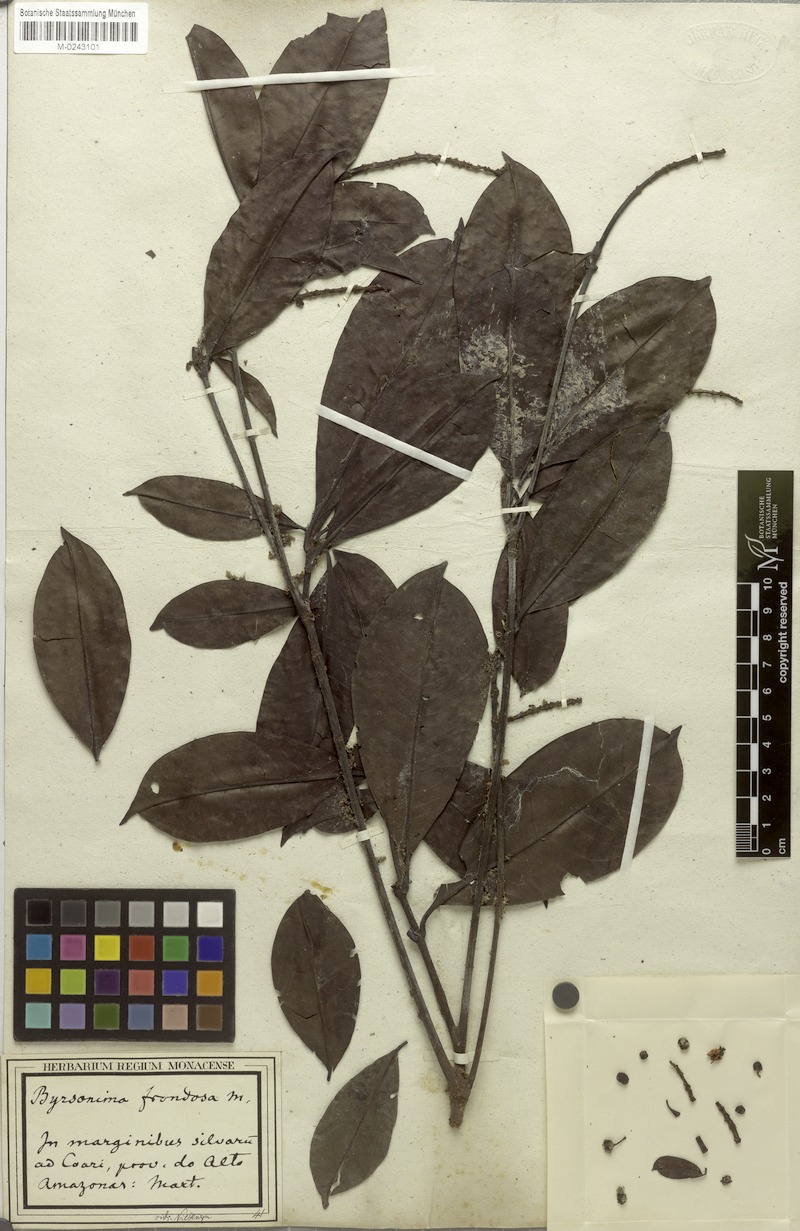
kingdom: Plantae
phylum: Tracheophyta
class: Magnoliopsida
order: Malpighiales
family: Malpighiaceae
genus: Byrsonima
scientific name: Byrsonima frondosa
